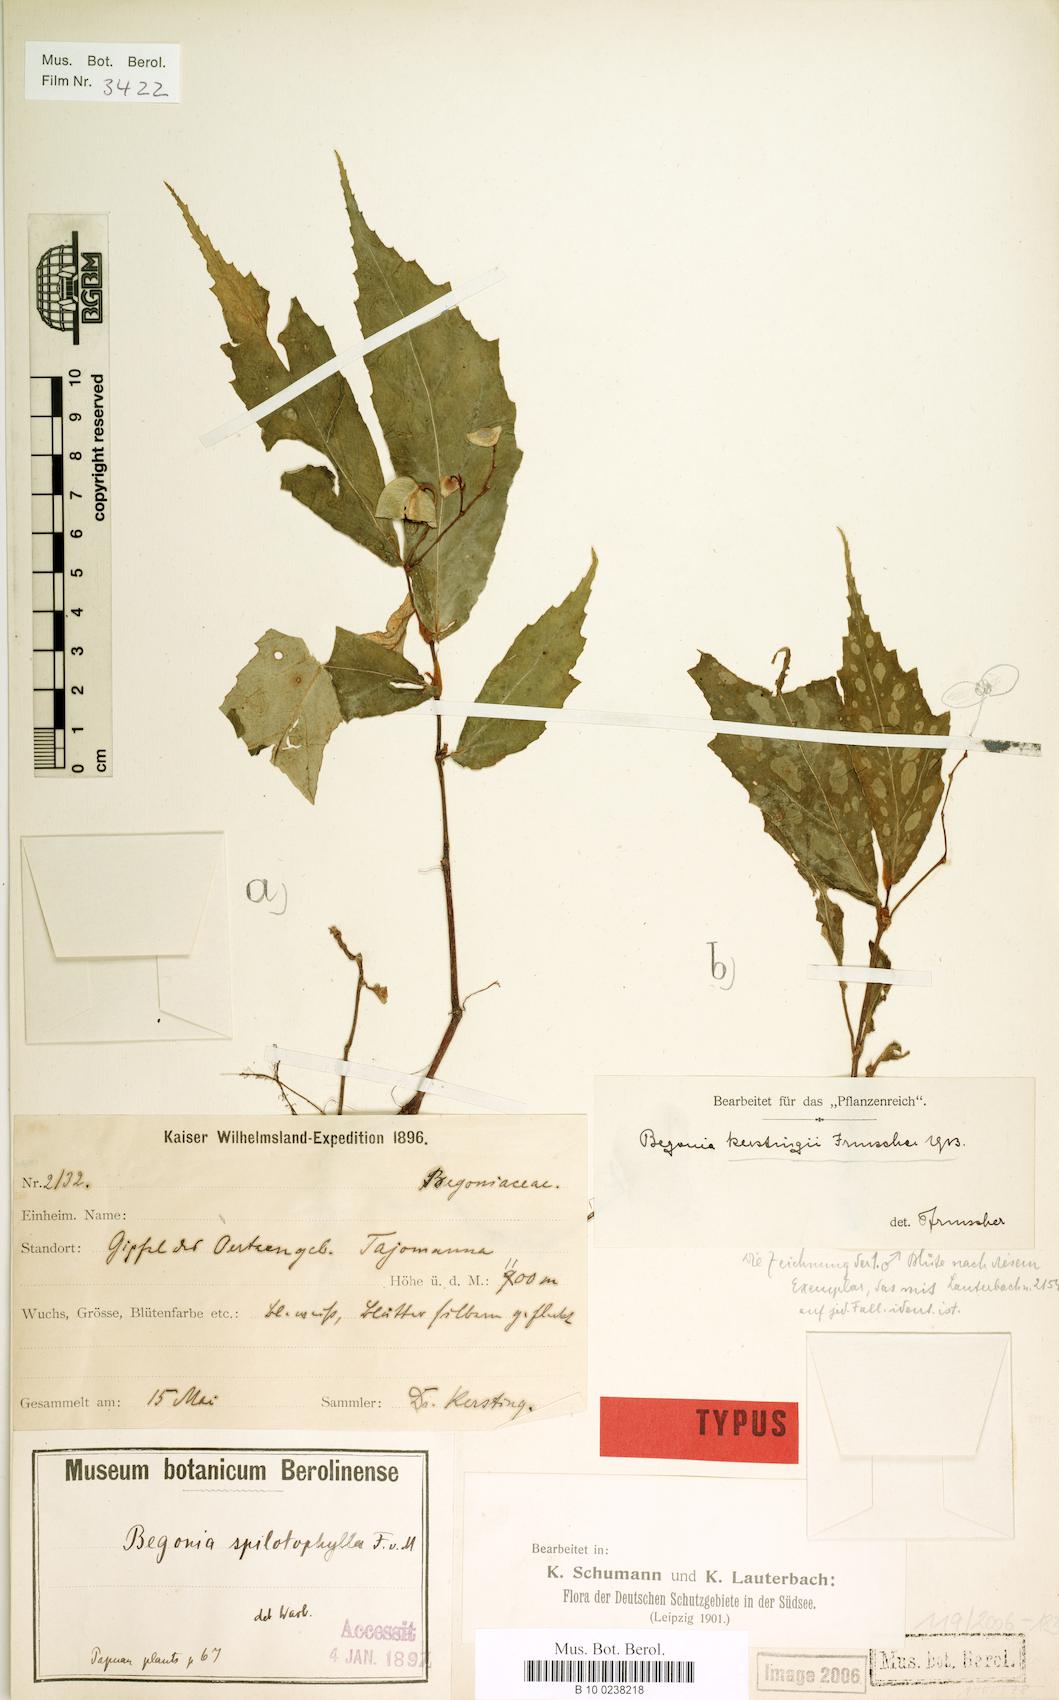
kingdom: Plantae
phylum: Tracheophyta
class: Magnoliopsida
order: Cucurbitales
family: Begoniaceae
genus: Begonia
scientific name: Begonia kerstingii
